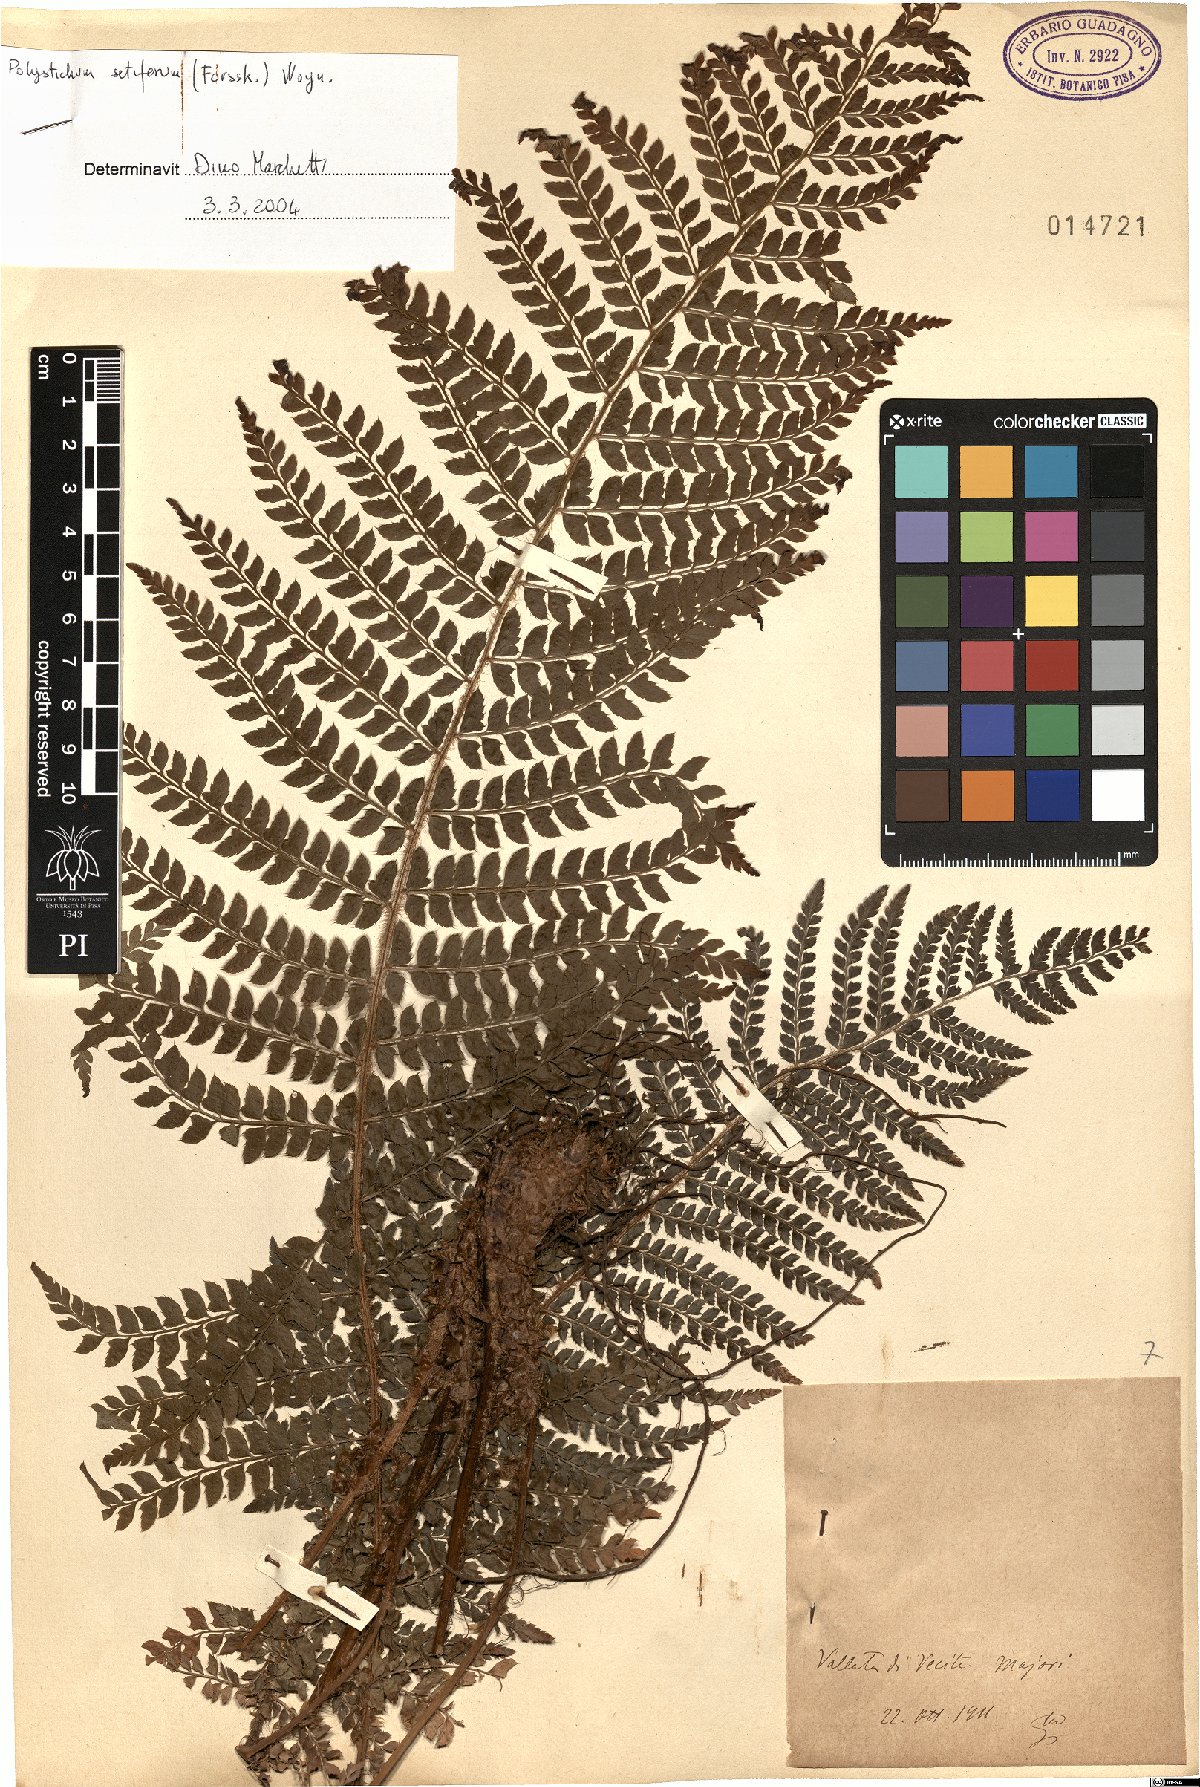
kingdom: Plantae
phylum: Tracheophyta
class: Polypodiopsida
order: Polypodiales
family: Dryopteridaceae
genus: Polystichum
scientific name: Polystichum setiferum
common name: Soft shield-fern
